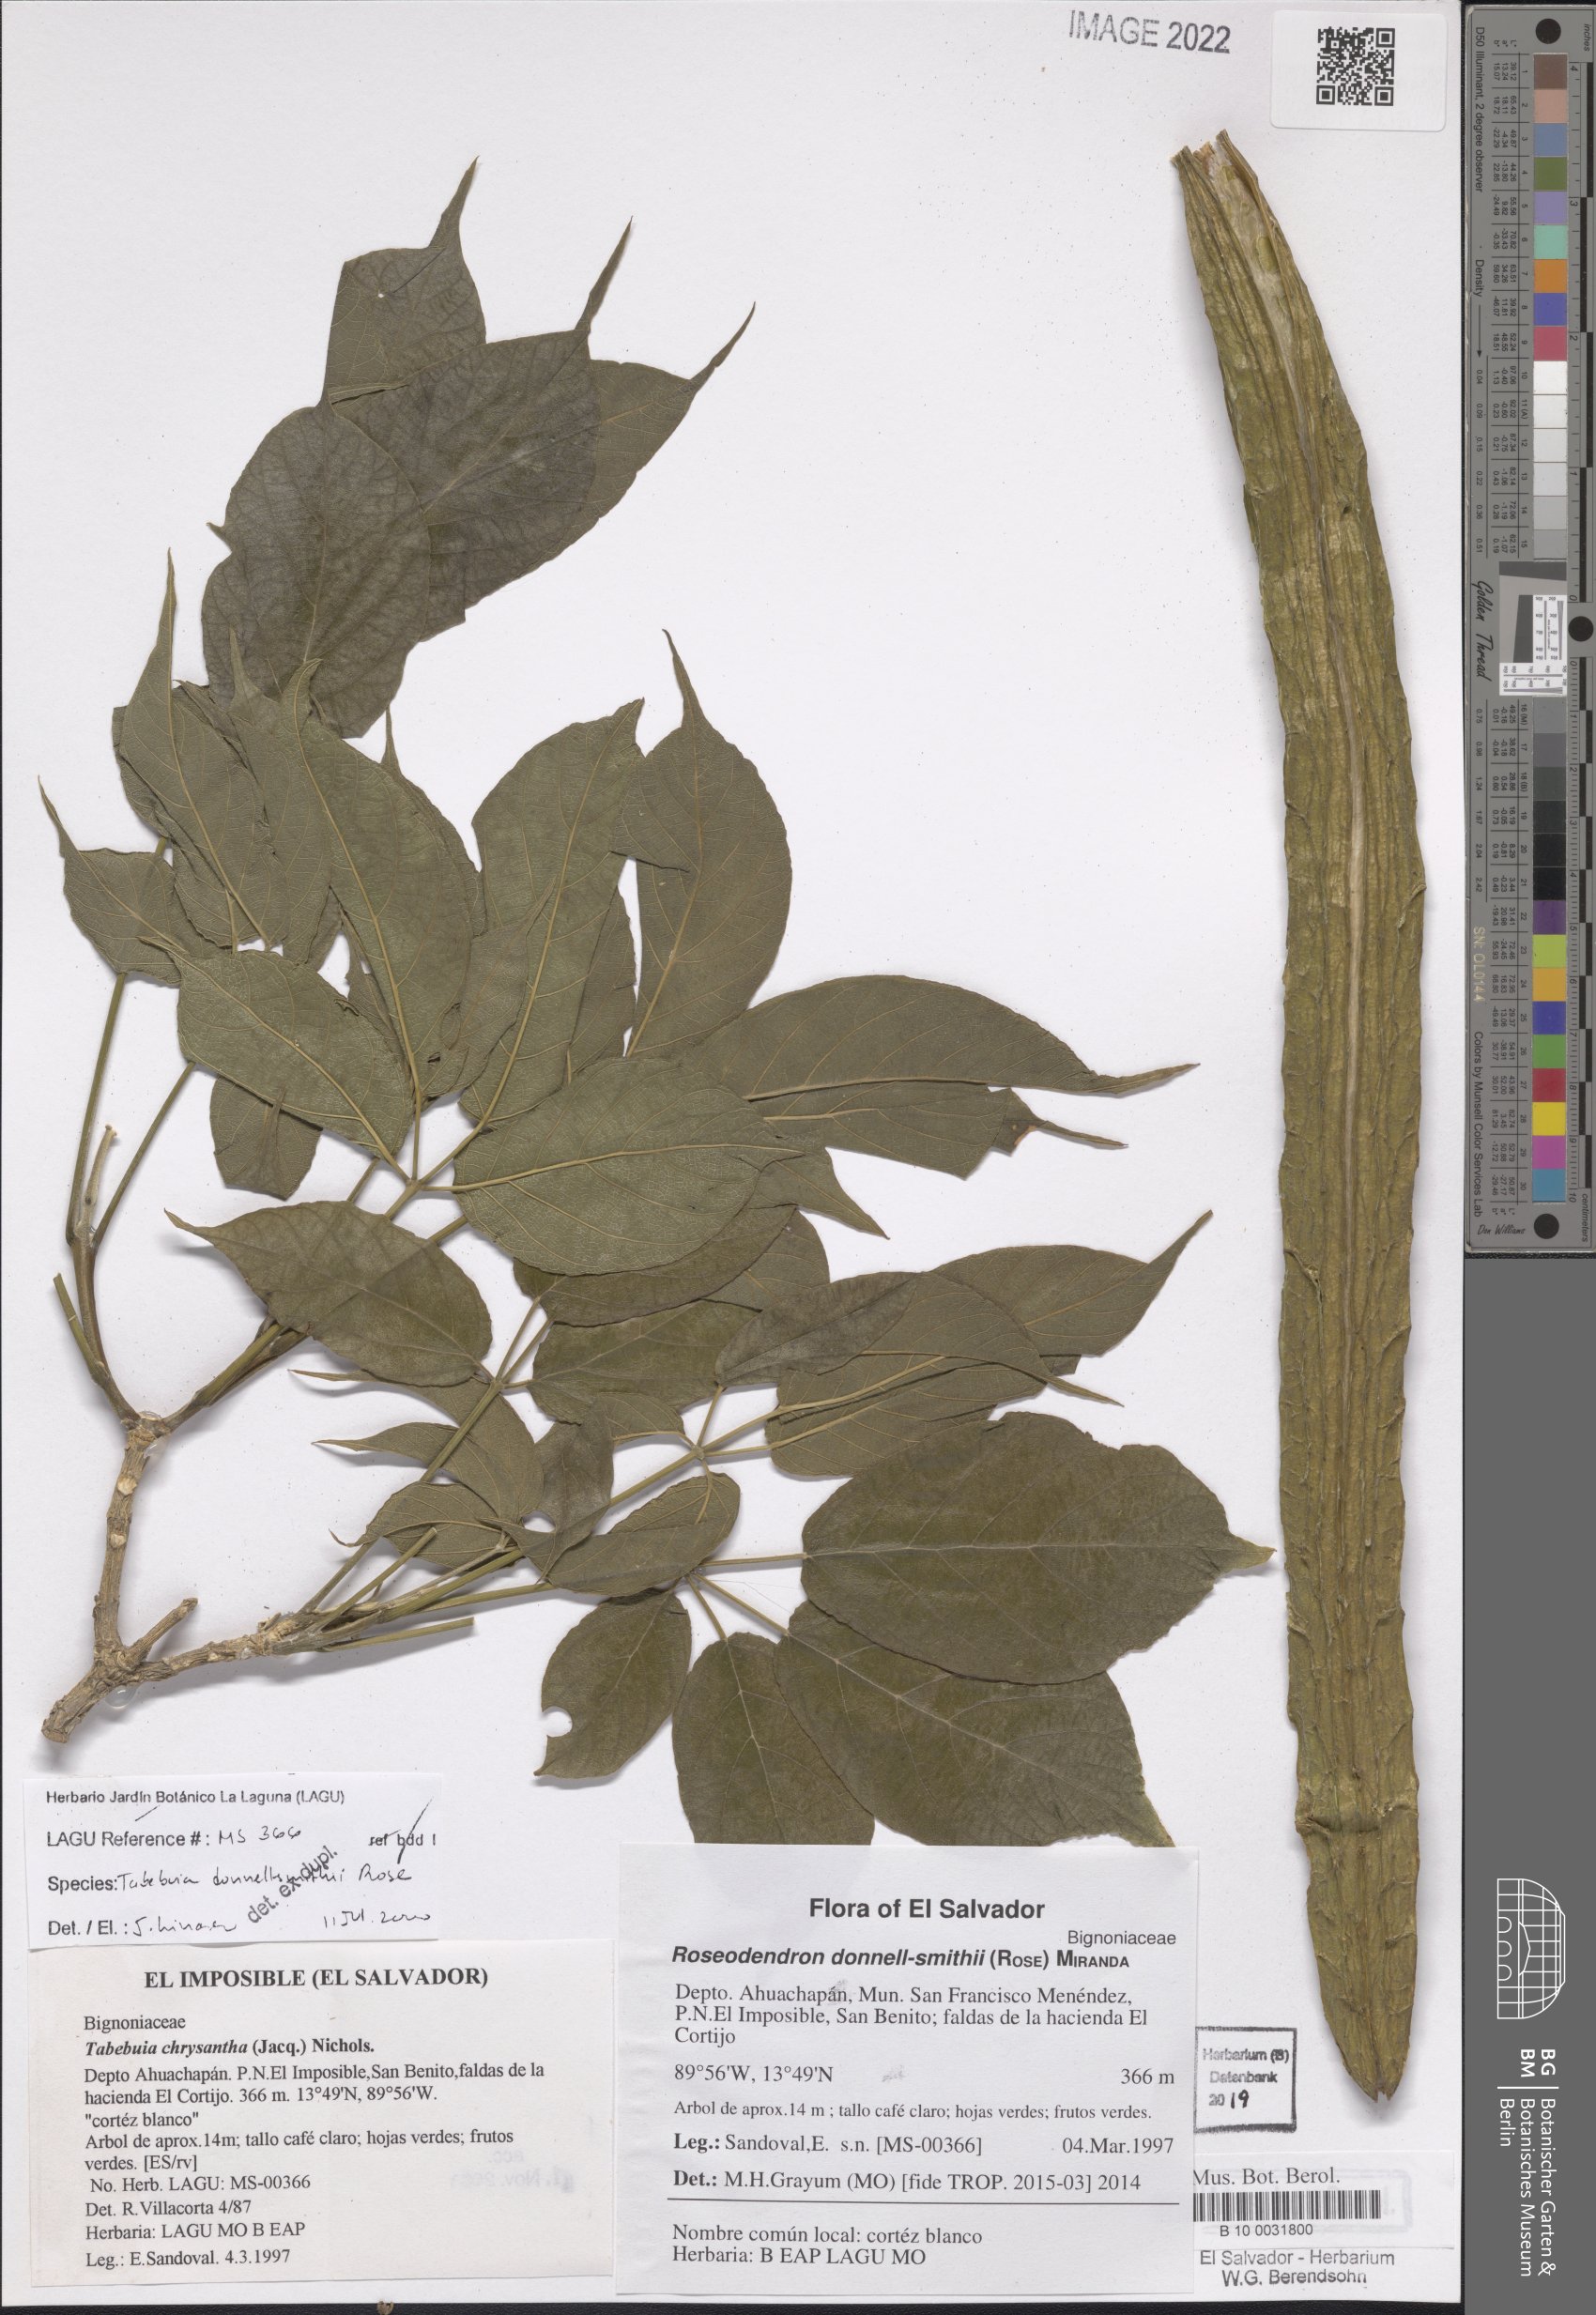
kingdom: Plantae
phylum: Tracheophyta
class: Magnoliopsida
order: Lamiales
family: Bignoniaceae
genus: Roseodendron
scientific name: Roseodendron donnell-smithii
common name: White-mahogany
